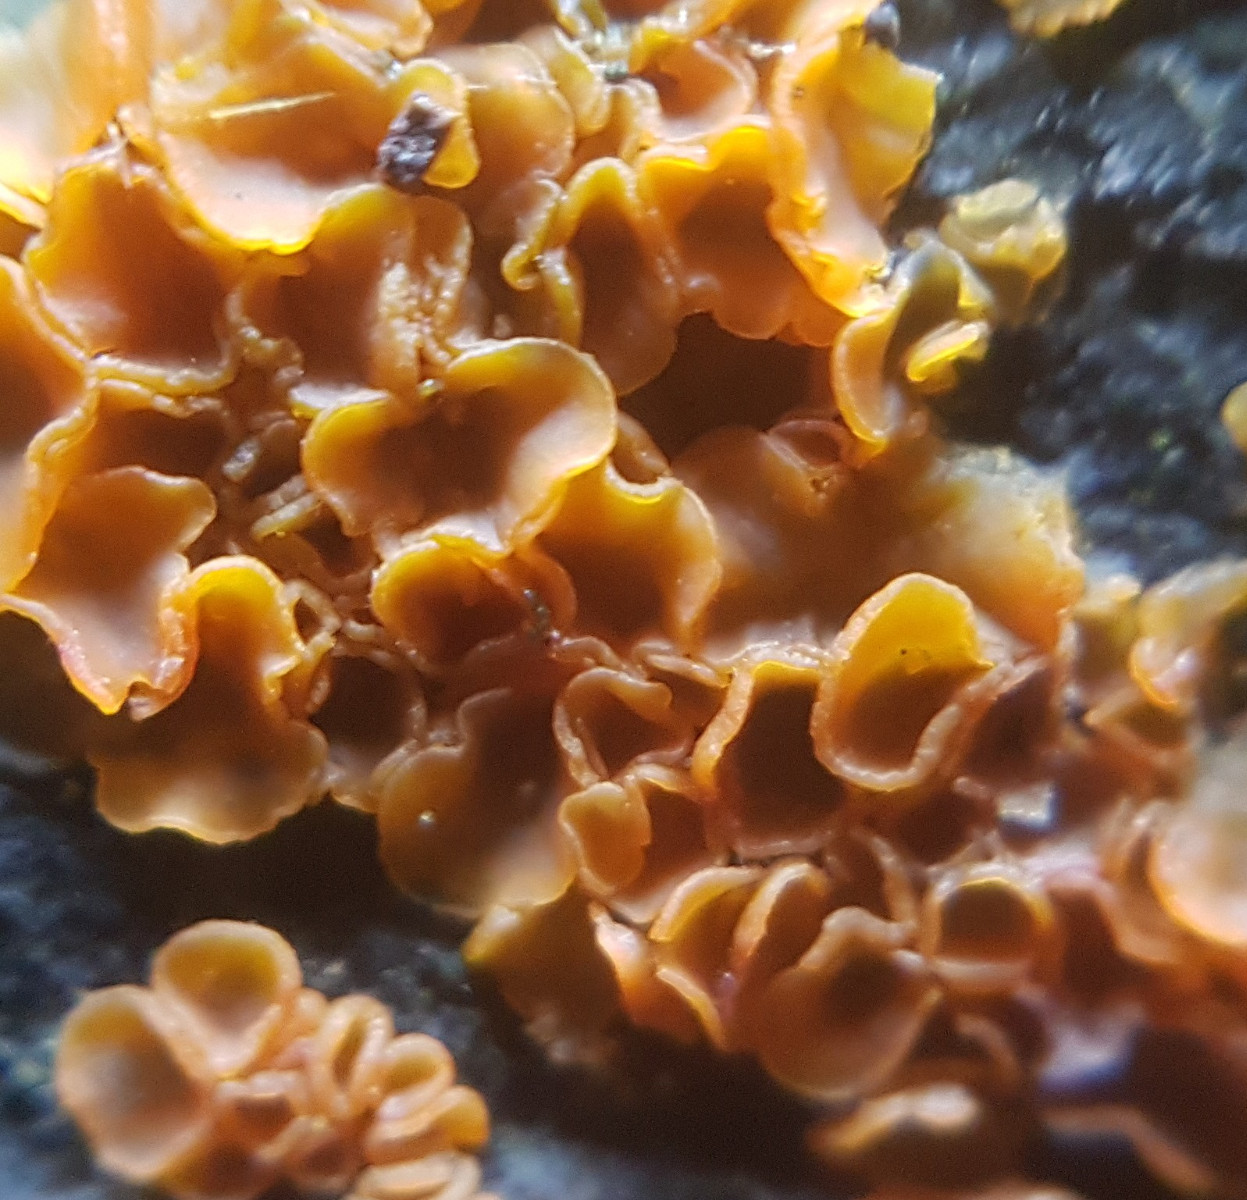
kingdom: Fungi
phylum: Ascomycota
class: Orbiliomycetes
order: Orbiliales
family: Orbiliaceae
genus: Orbilia
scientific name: Orbilia xanthostigma
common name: krumsporet voksskive
